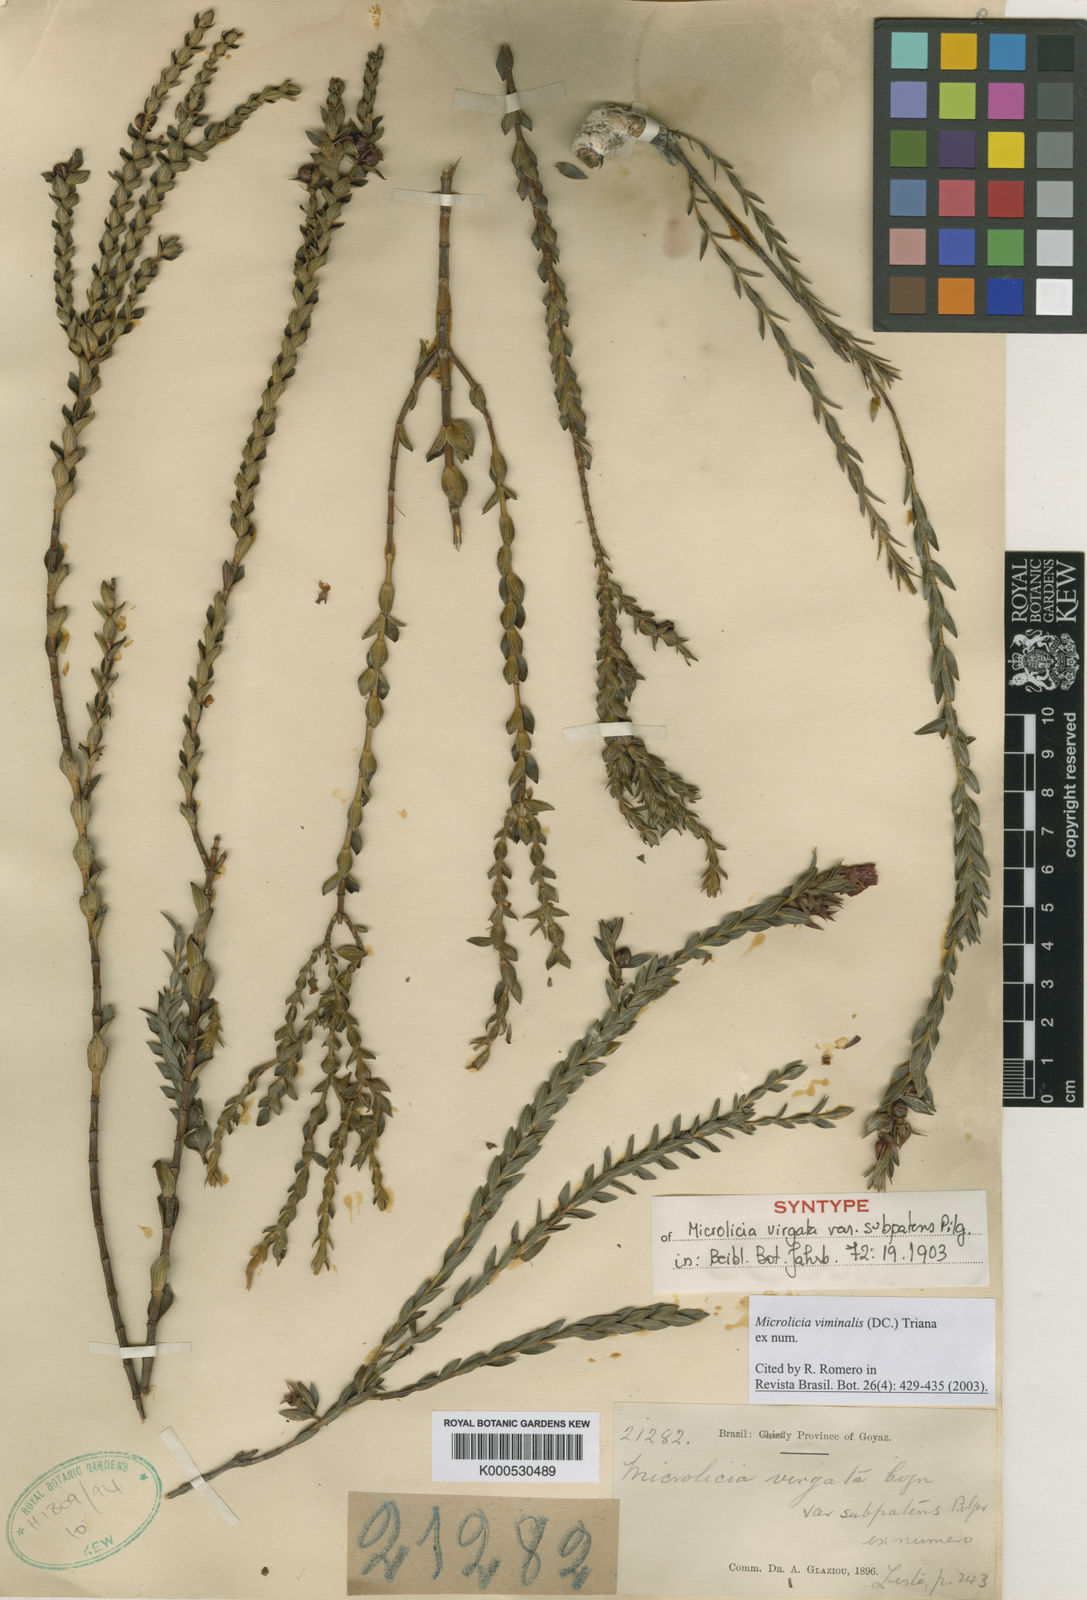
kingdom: Plantae
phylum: Tracheophyta
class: Magnoliopsida
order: Myrtales
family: Melastomataceae
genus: Microlicia
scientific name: Microlicia viminalis
